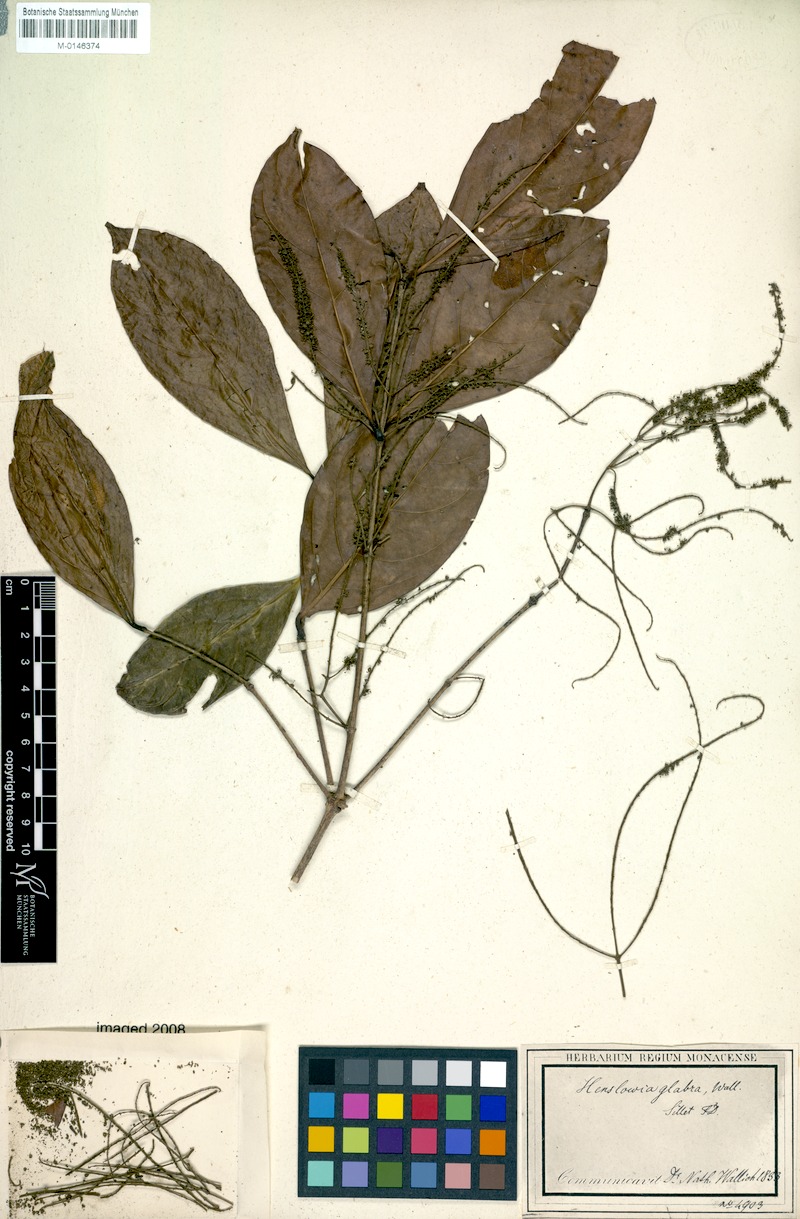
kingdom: Plantae
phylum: Tracheophyta
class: Magnoliopsida
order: Myrtales
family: Crypteroniaceae
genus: Crypteronia
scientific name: Crypteronia paniculata
